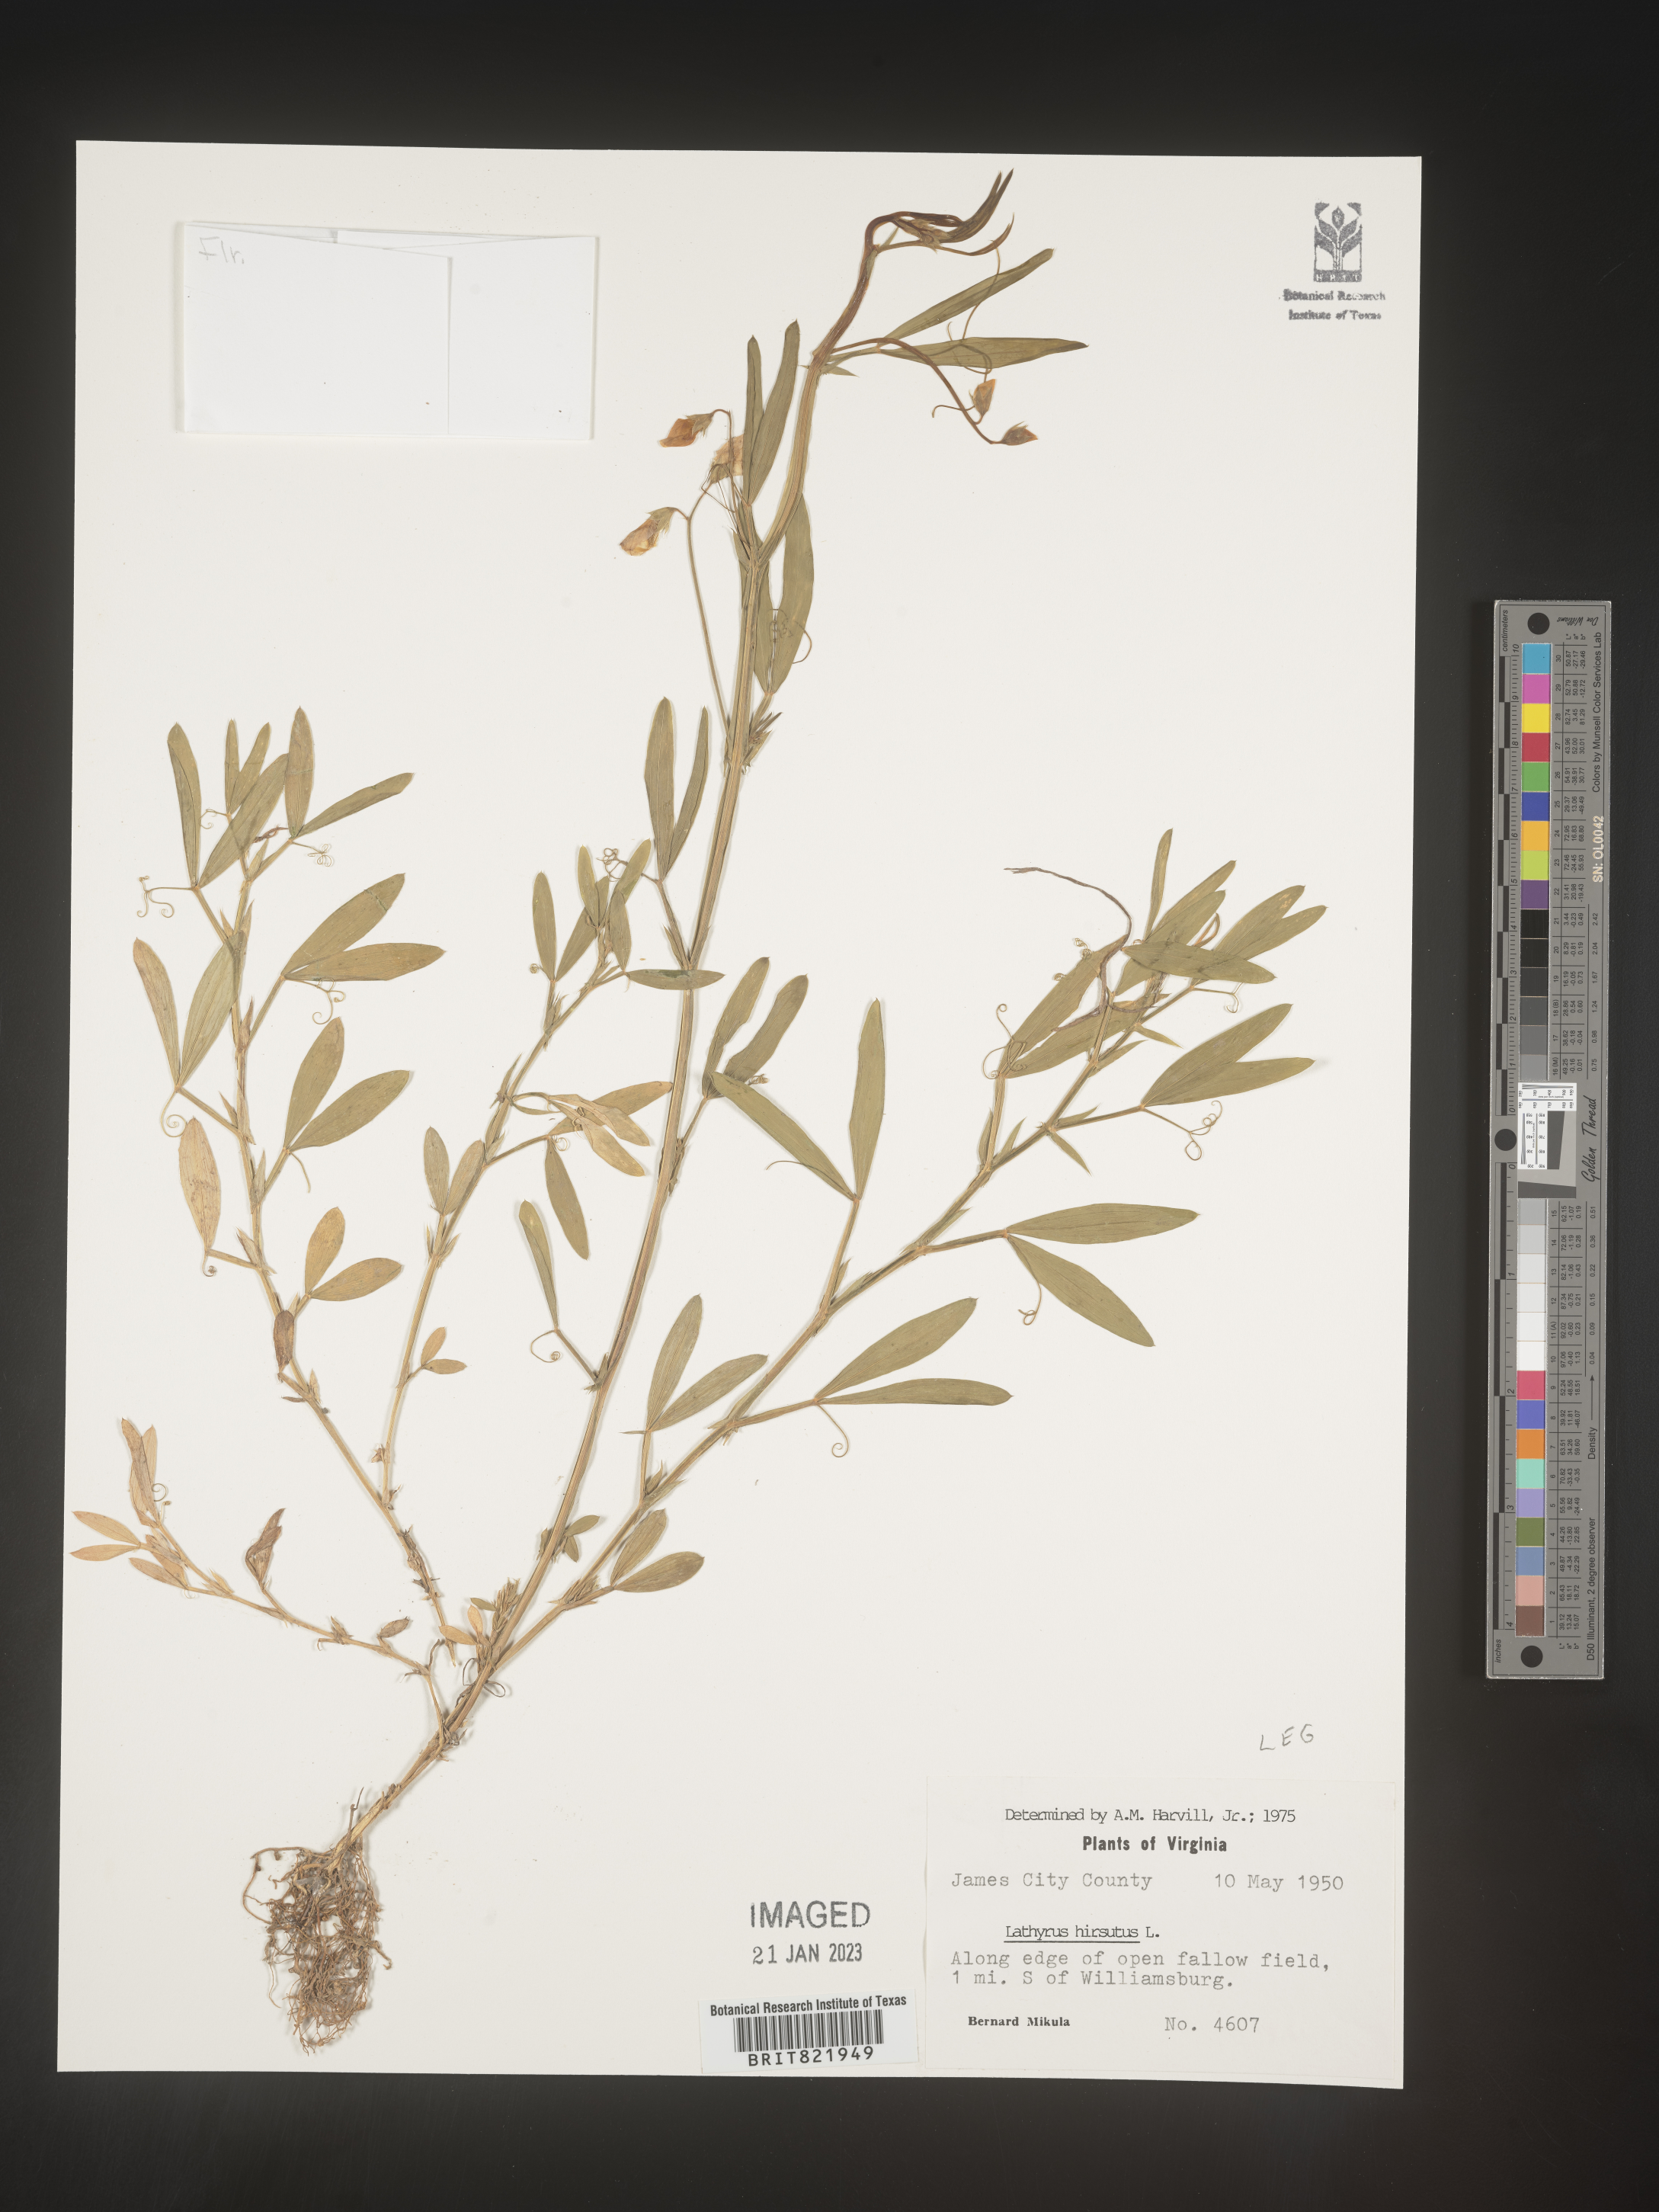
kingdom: Plantae
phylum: Tracheophyta
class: Magnoliopsida
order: Fabales
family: Fabaceae
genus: Lathyrus
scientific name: Lathyrus hirsutus
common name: Hairy vetchling
